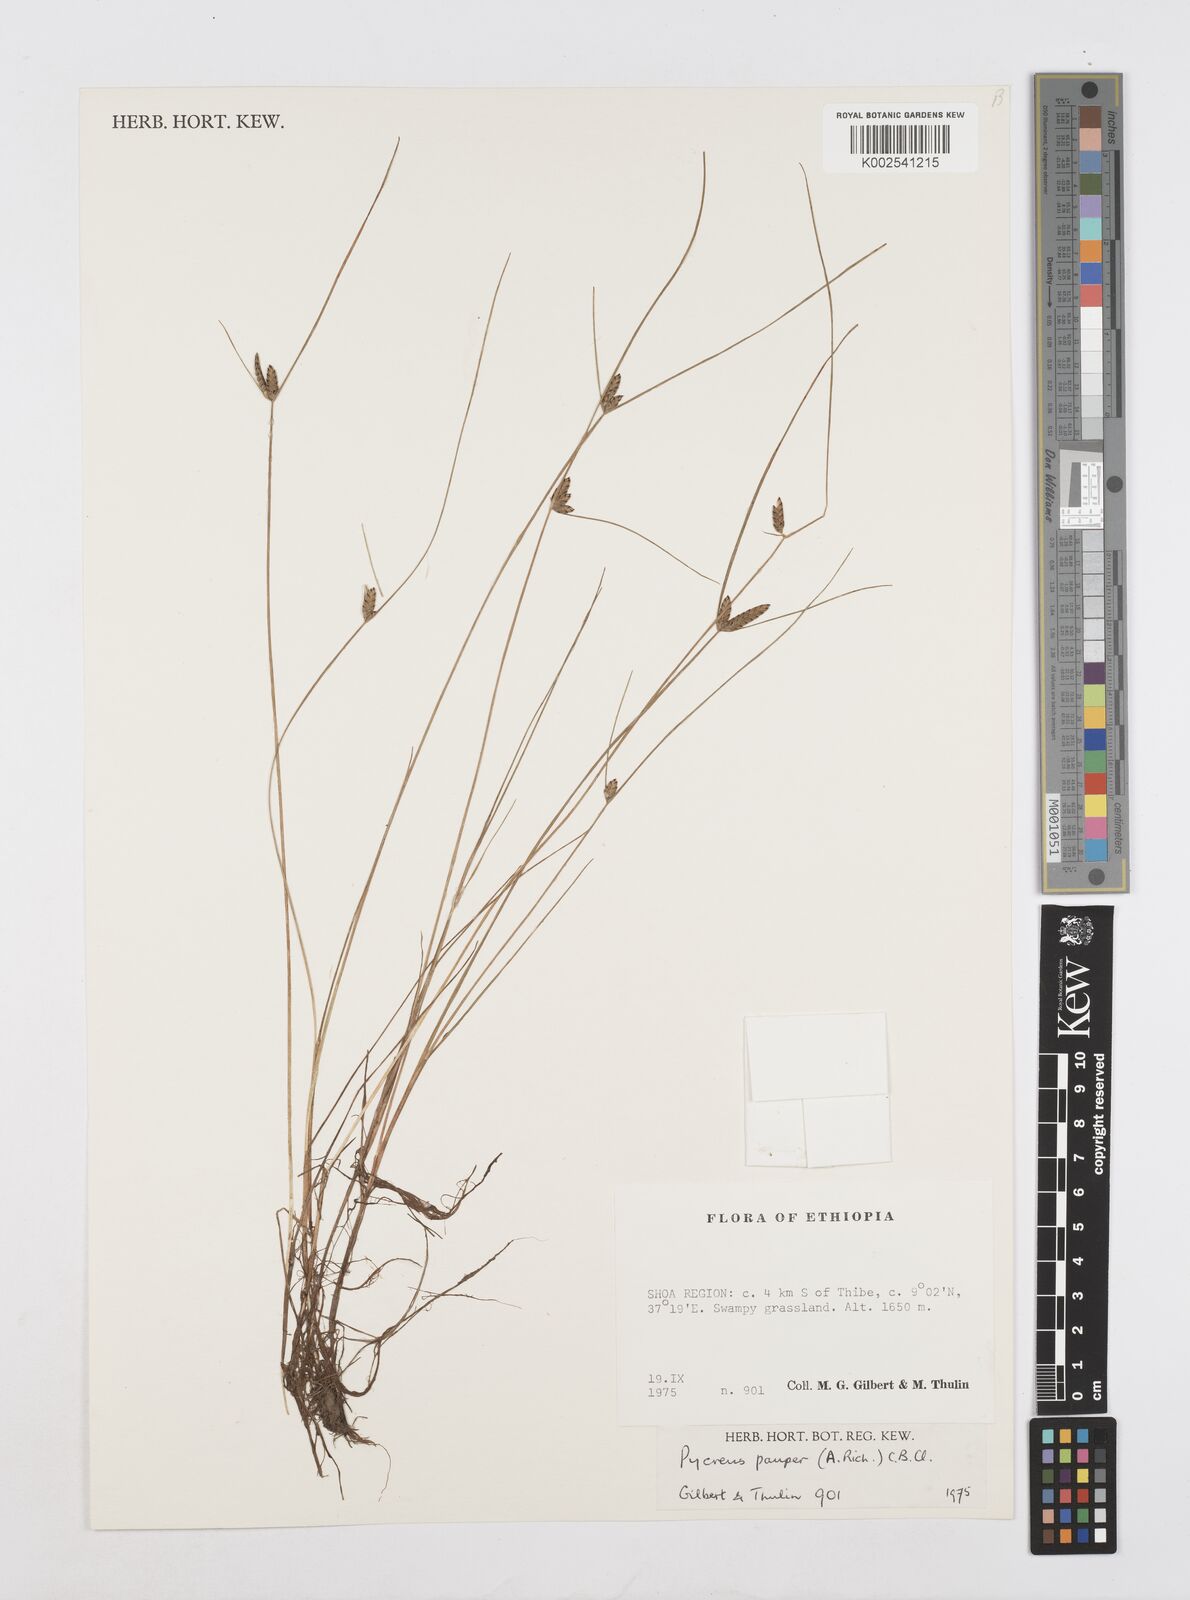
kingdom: Plantae
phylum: Tracheophyta
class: Liliopsida
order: Poales
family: Cyperaceae
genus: Cyperus
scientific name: Cyperus pauper
